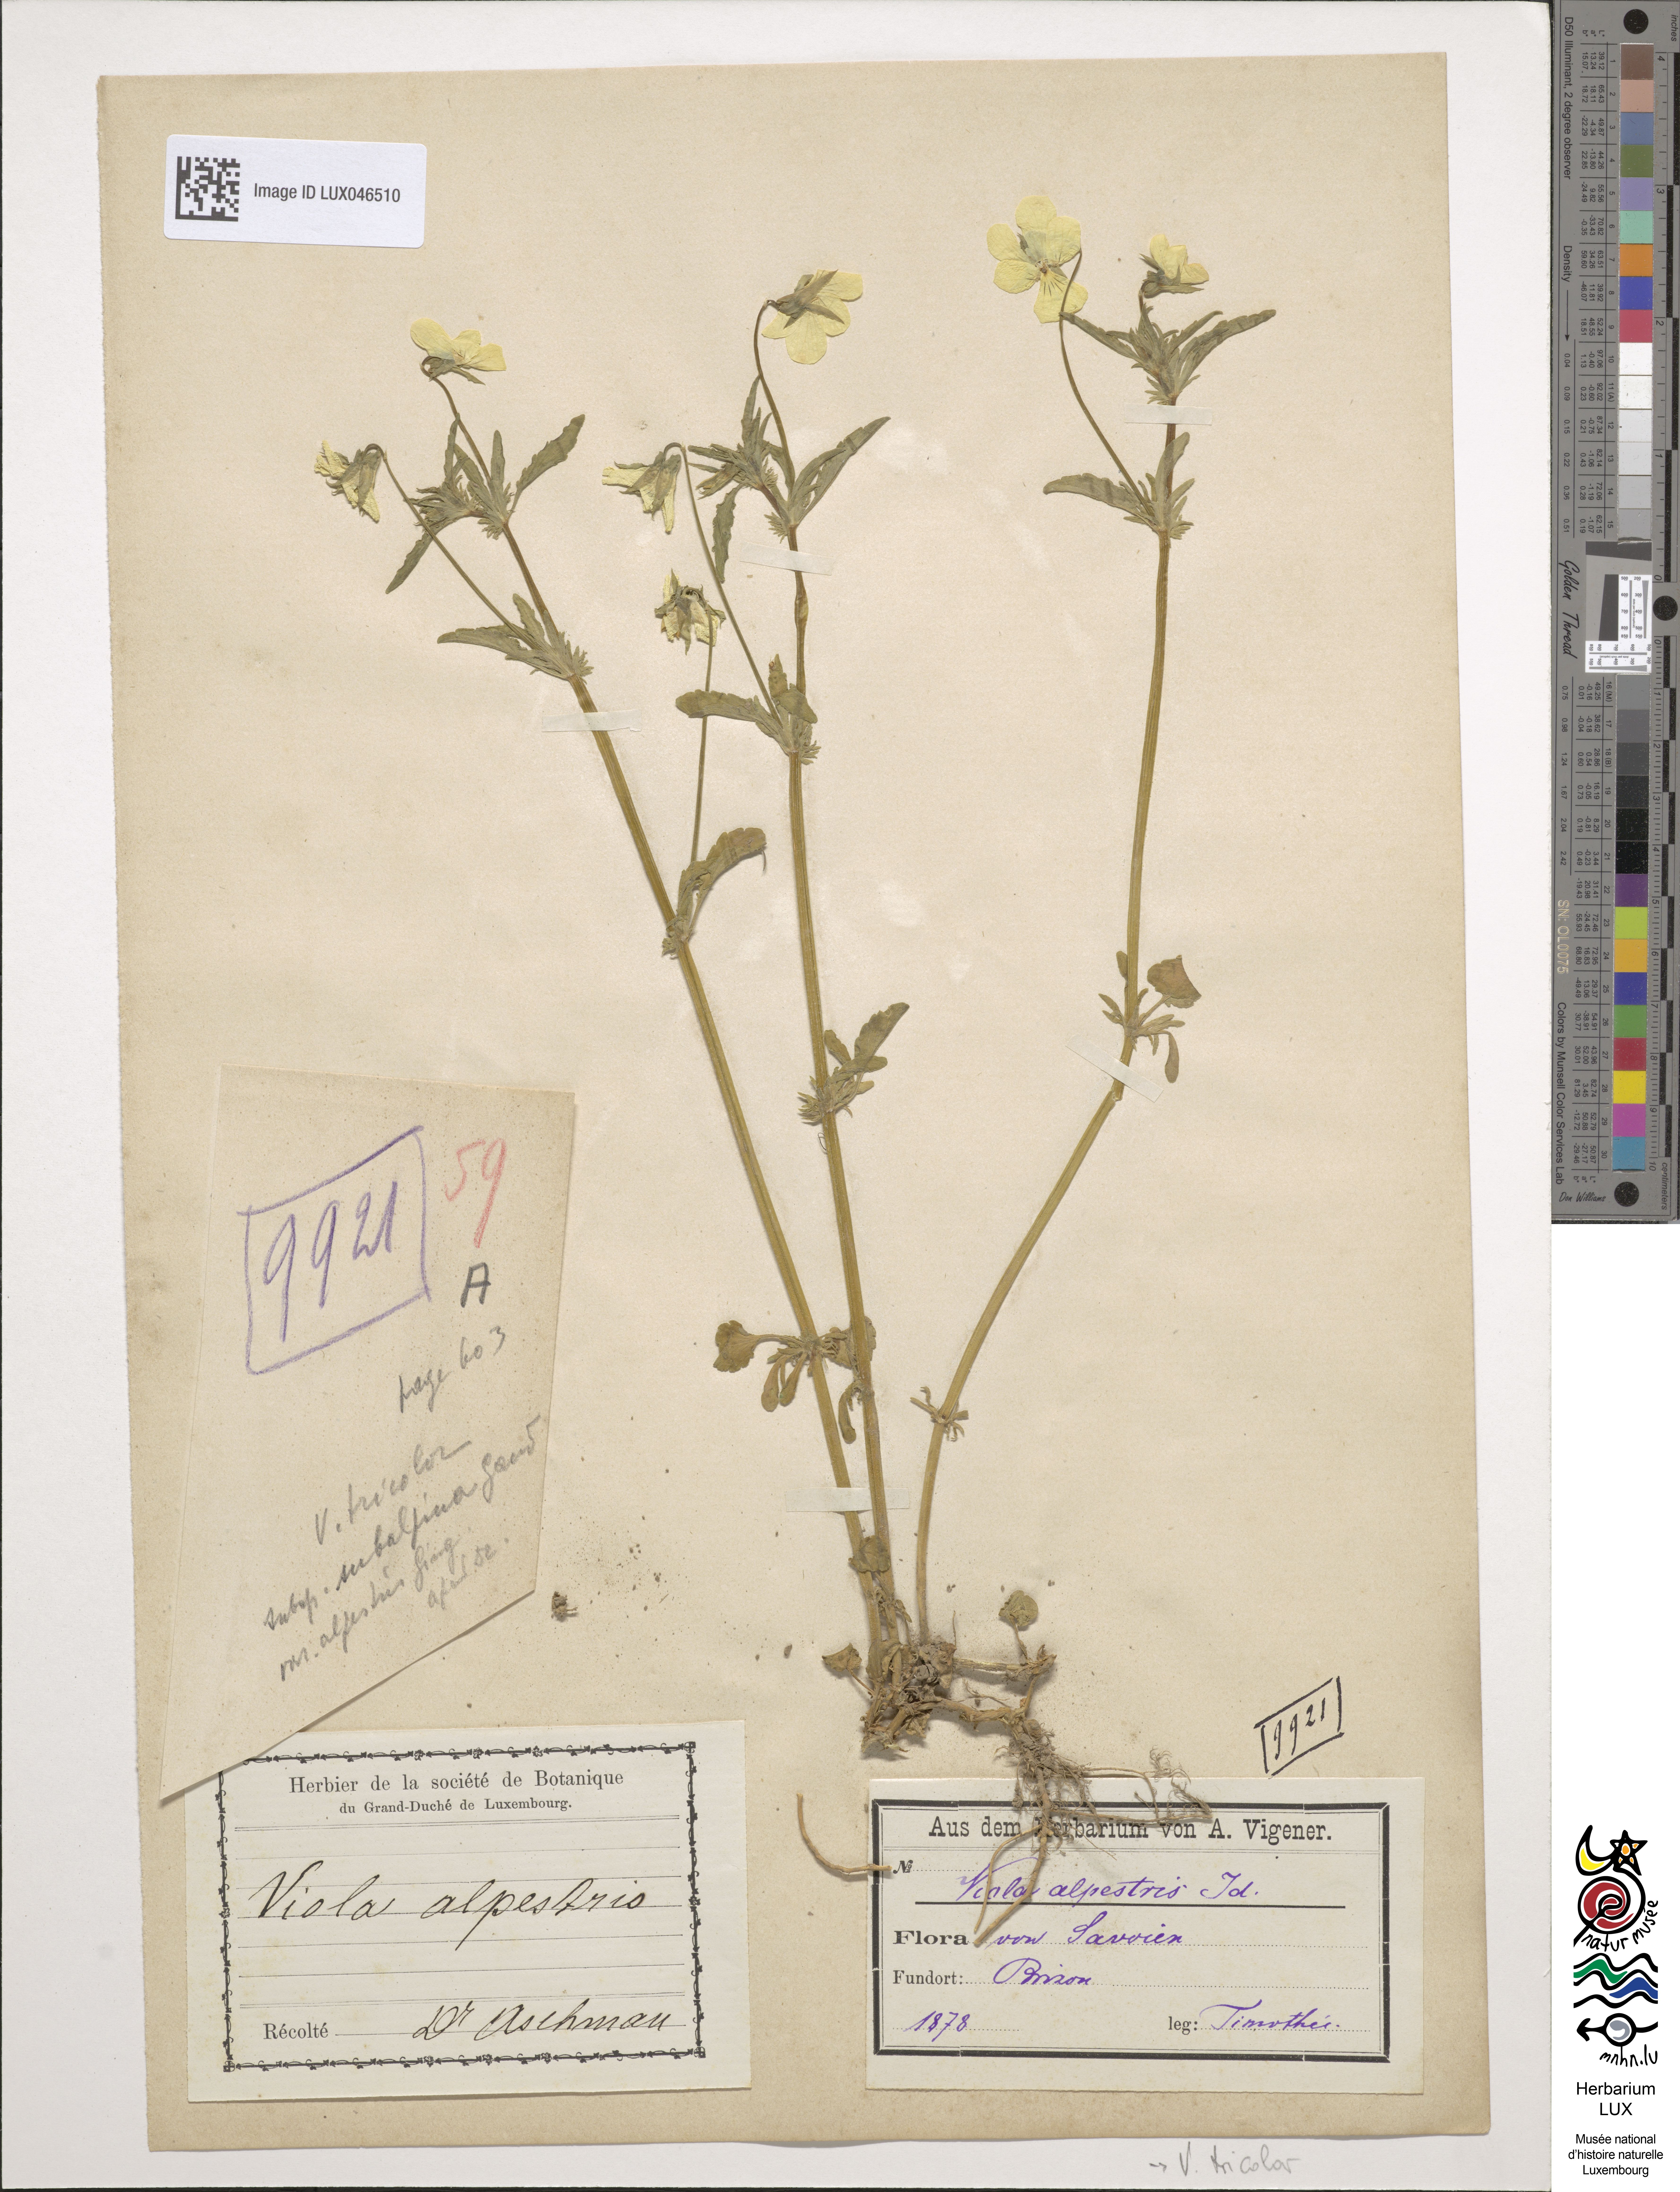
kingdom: Plantae
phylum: Tracheophyta
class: Magnoliopsida
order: Malpighiales
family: Violaceae
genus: Viola
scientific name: Viola tricolor
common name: Pansy
